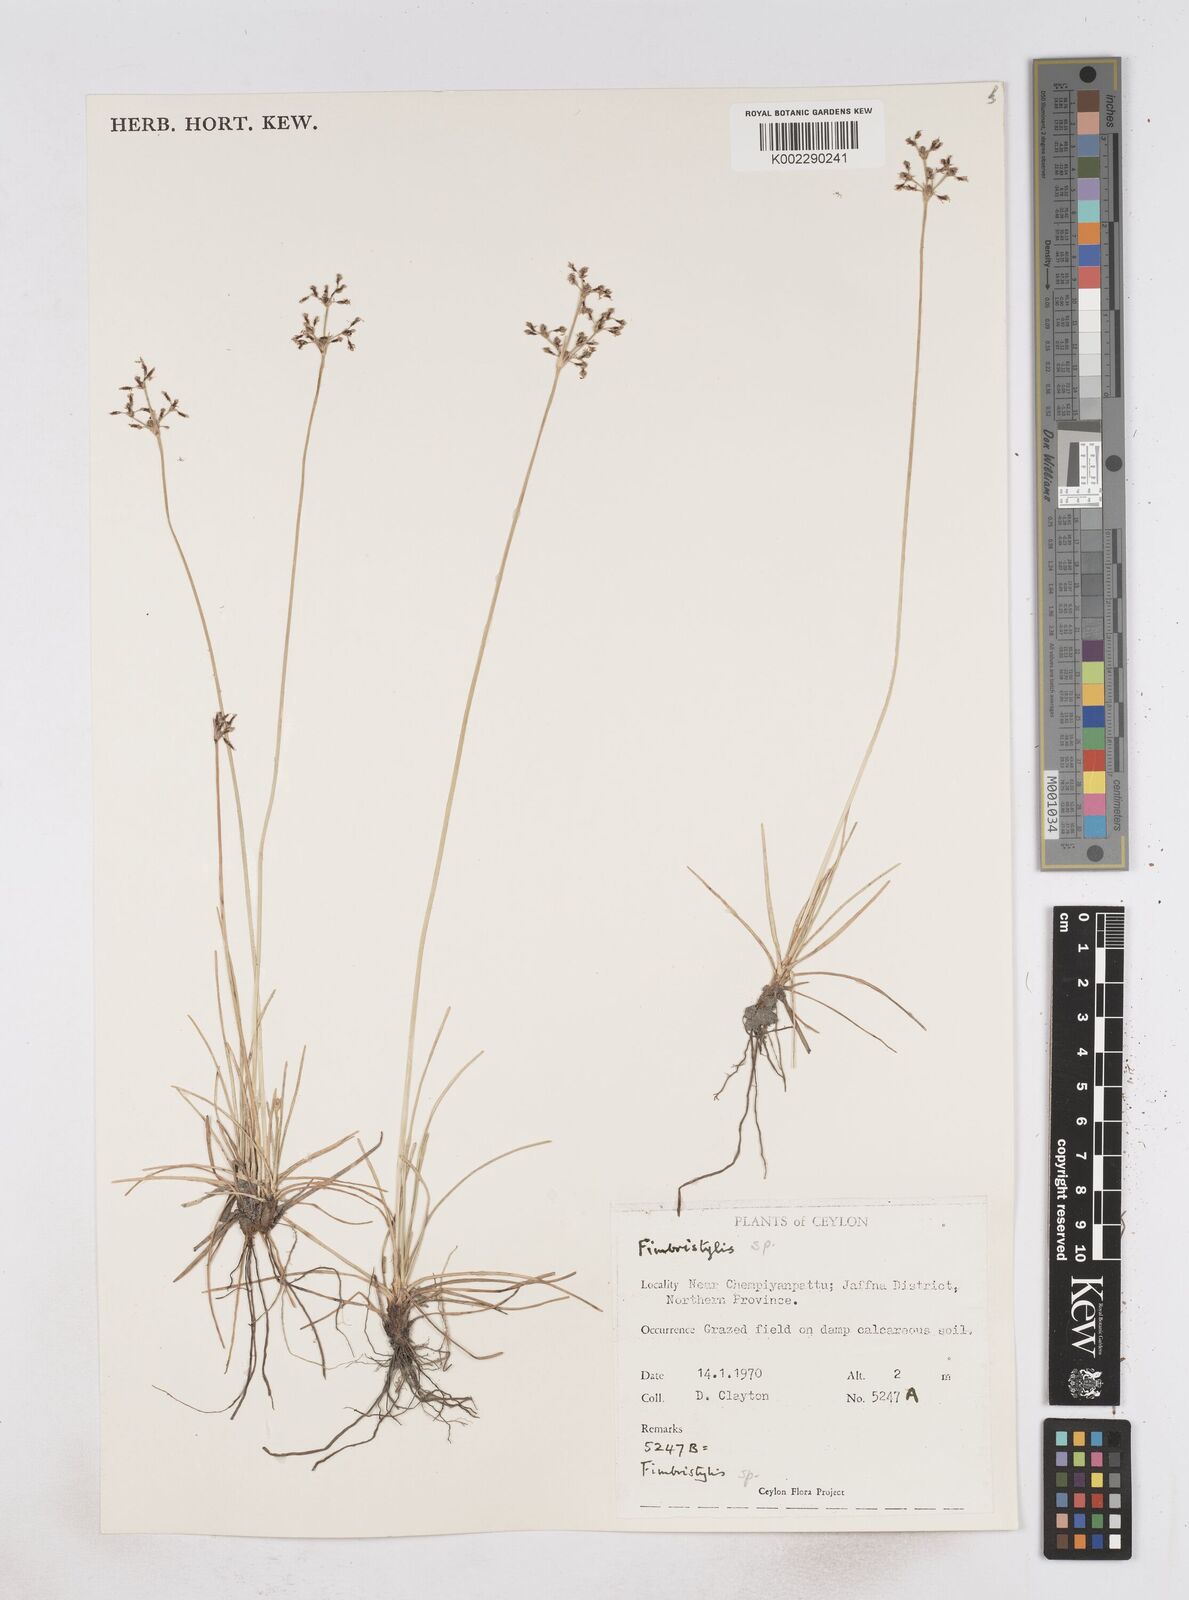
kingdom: Plantae
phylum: Tracheophyta
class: Liliopsida
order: Poales
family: Cyperaceae
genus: Fimbristylis
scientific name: Fimbristylis
